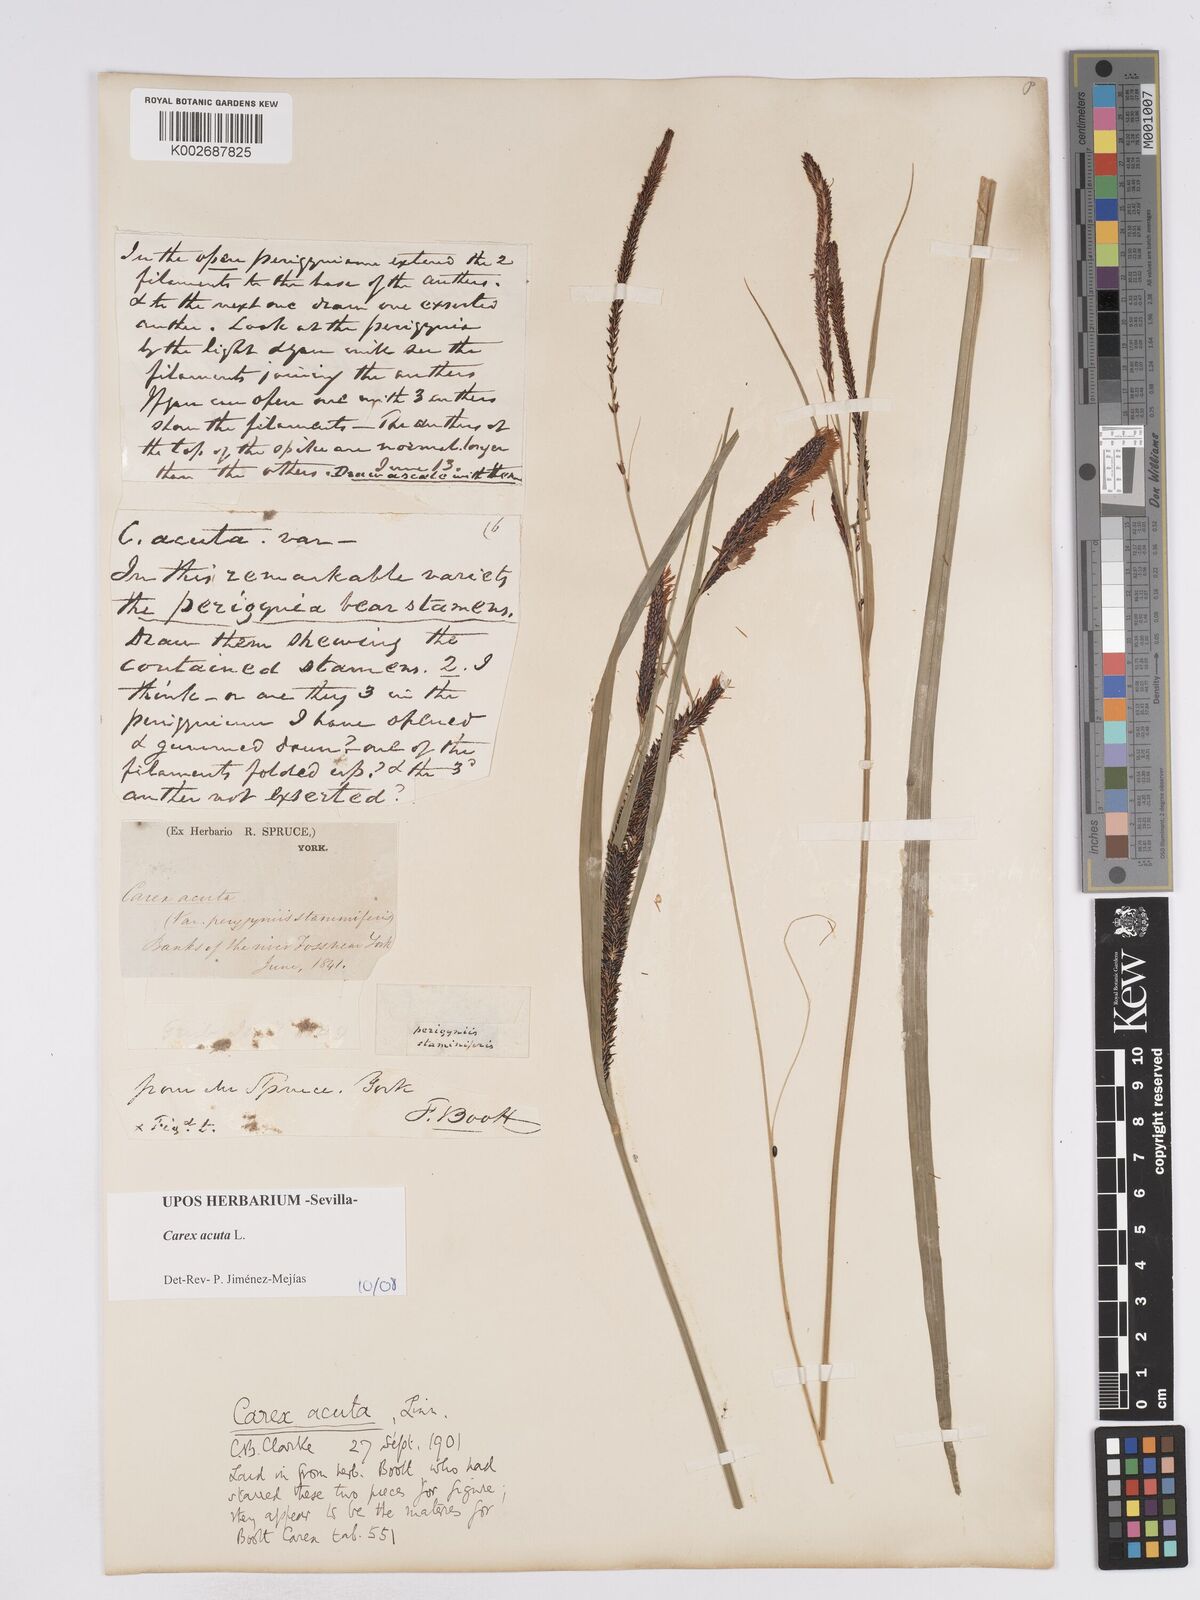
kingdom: Plantae
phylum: Tracheophyta
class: Liliopsida
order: Poales
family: Cyperaceae
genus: Carex
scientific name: Carex acuta
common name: Slender tufted-sedge
